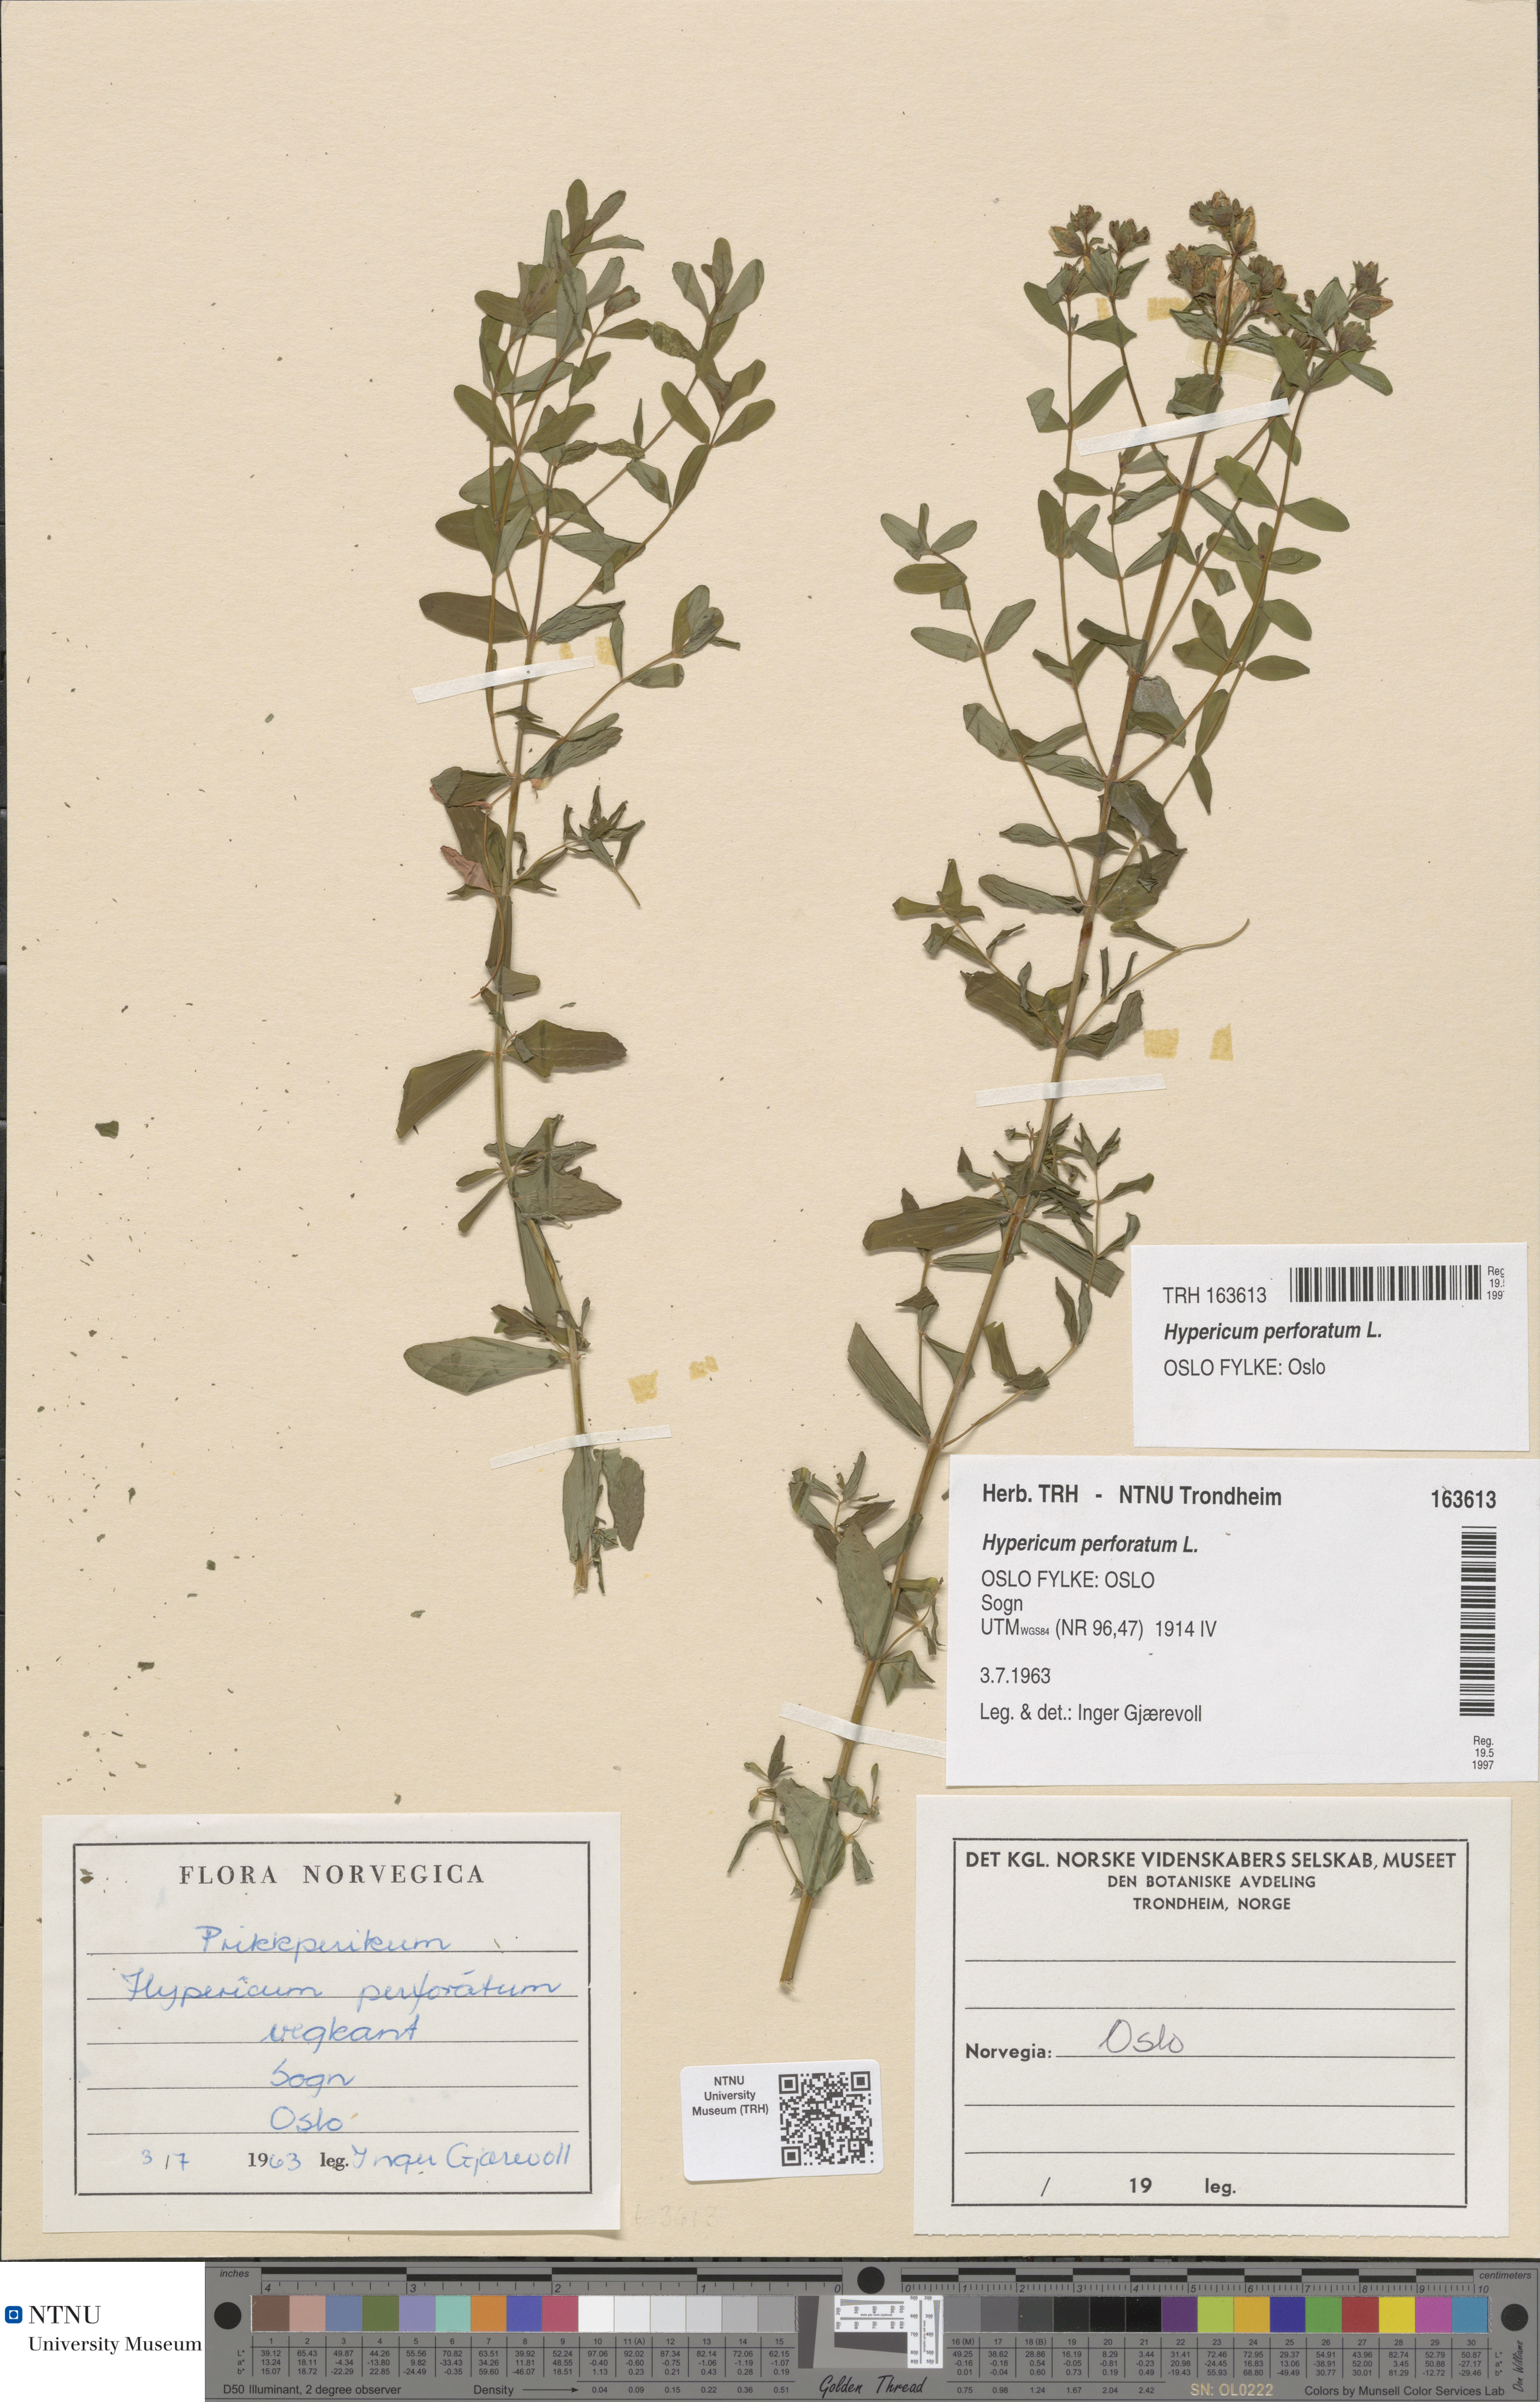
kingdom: Plantae
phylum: Tracheophyta
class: Magnoliopsida
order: Malpighiales
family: Hypericaceae
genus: Hypericum
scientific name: Hypericum perforatum
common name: Common st. johnswort
